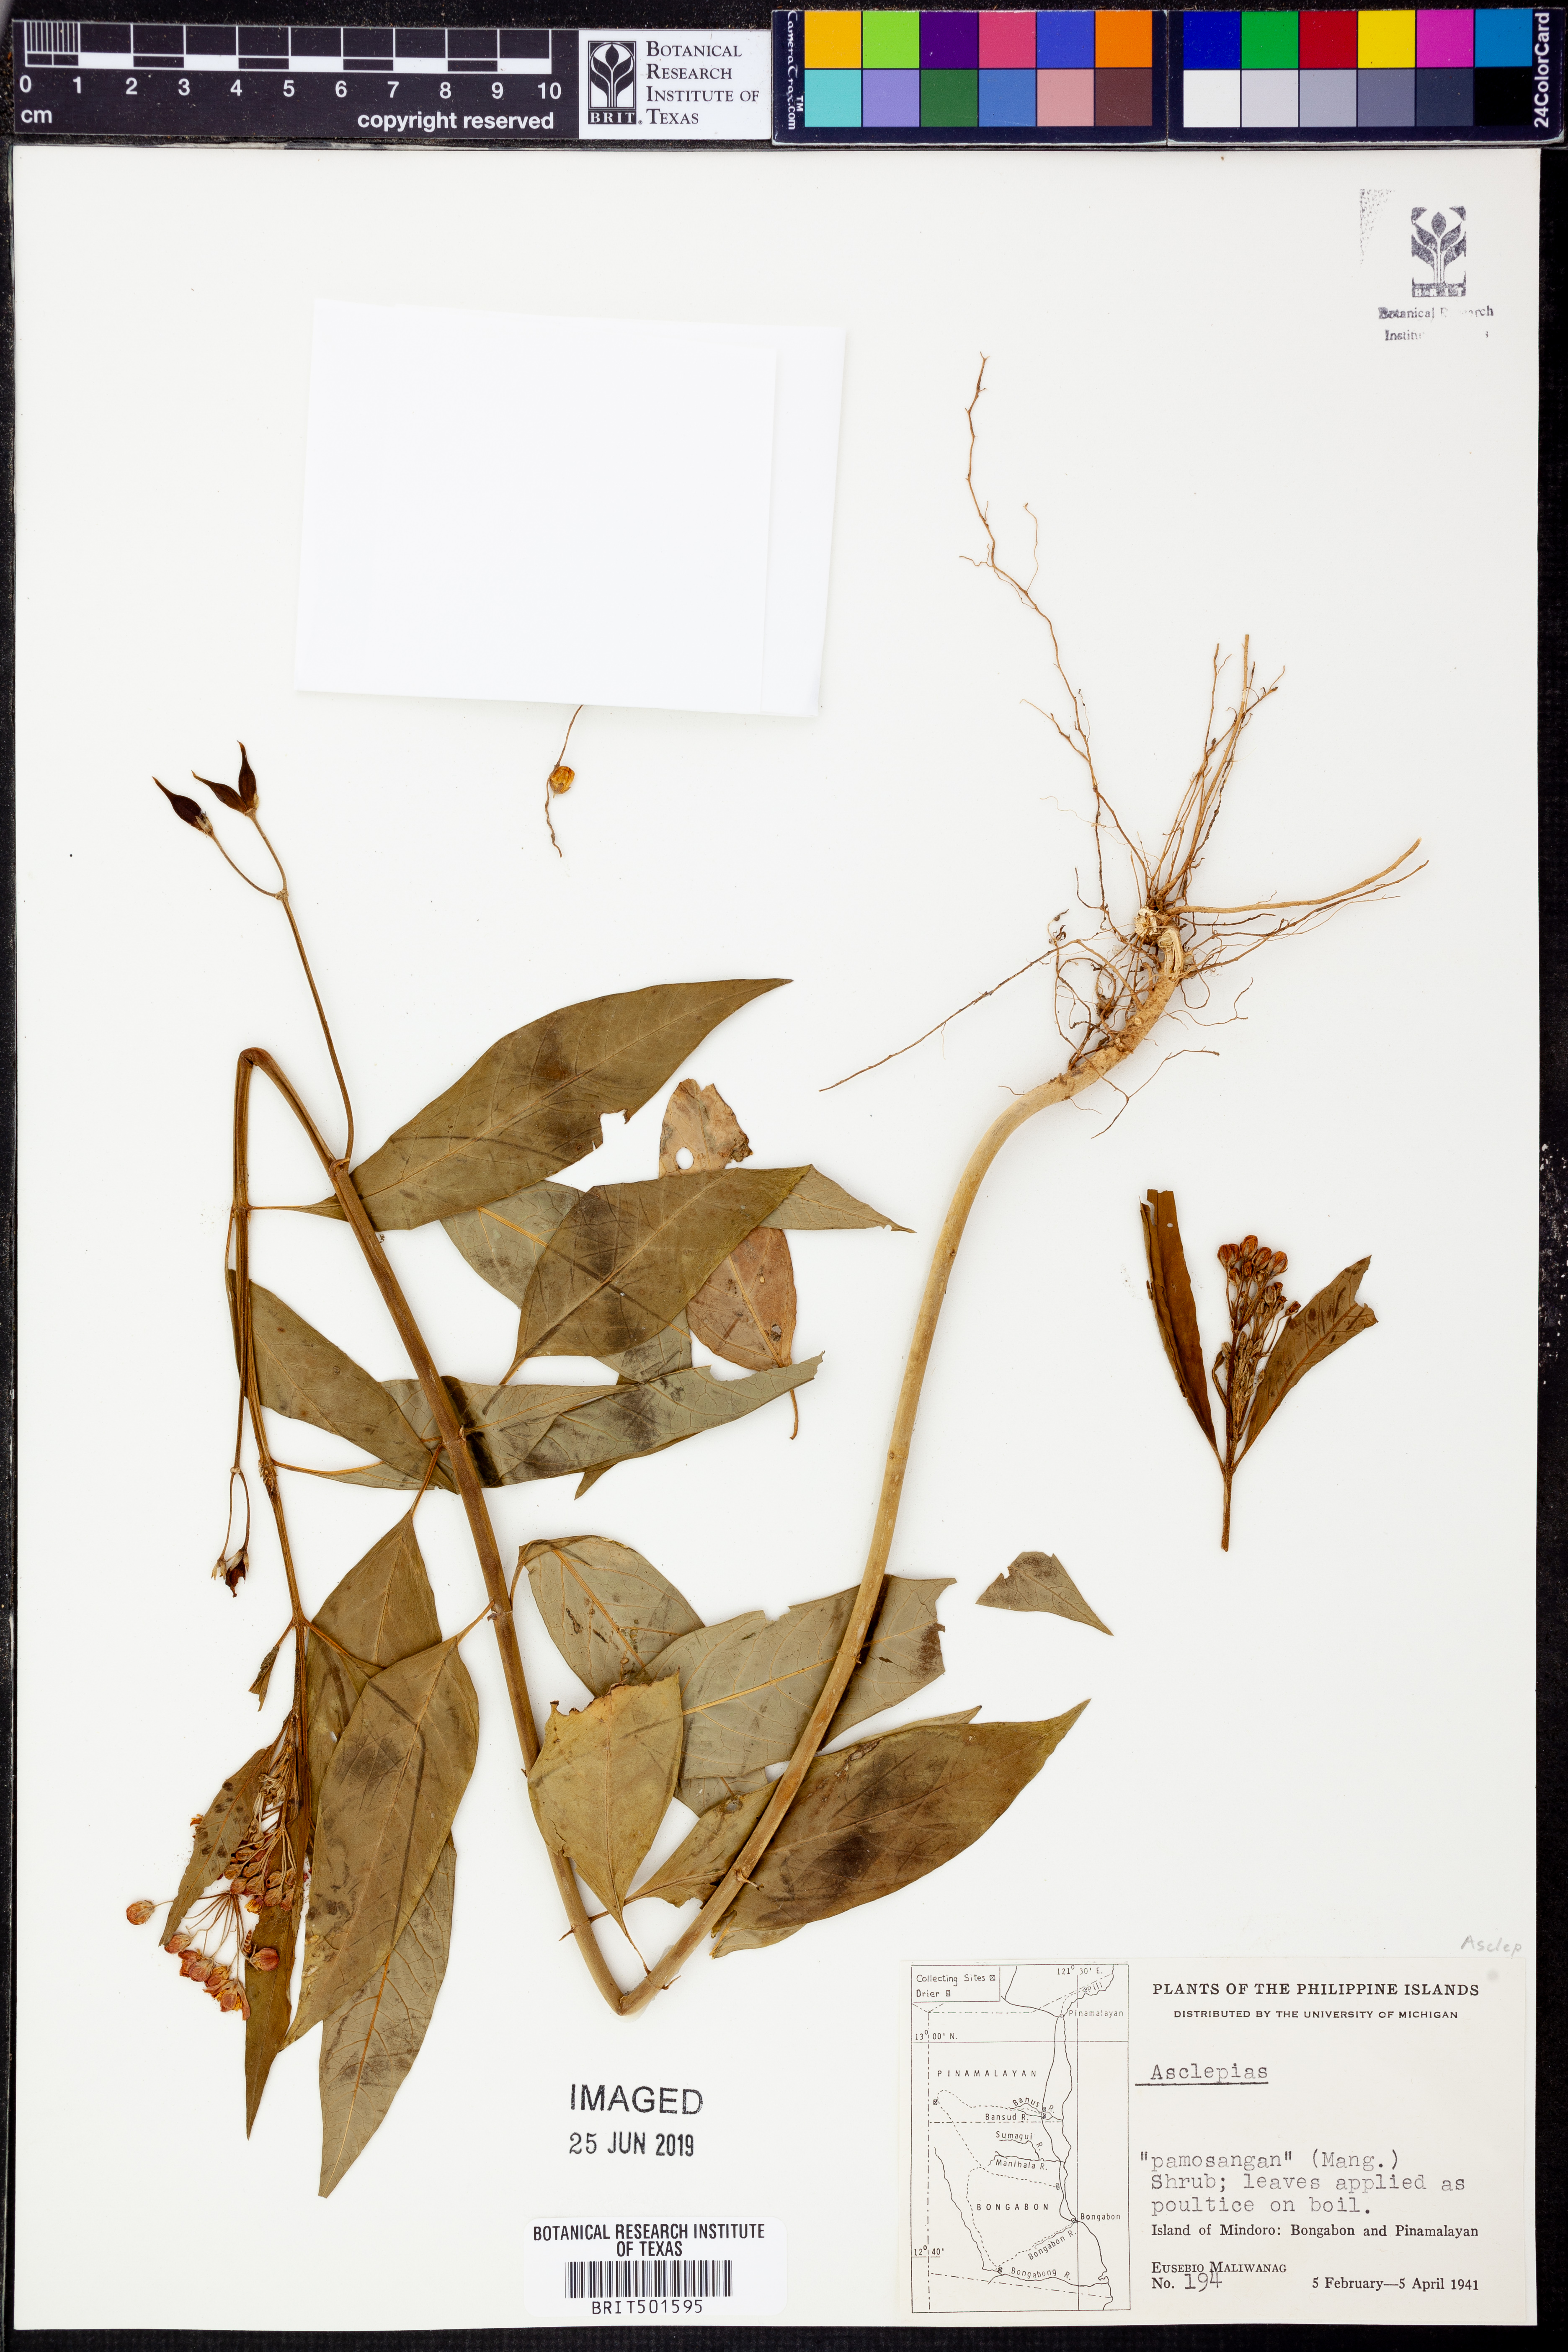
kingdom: Plantae
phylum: Tracheophyta
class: Magnoliopsida
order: Gentianales
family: Apocynaceae
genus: Asclepias
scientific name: Asclepias
